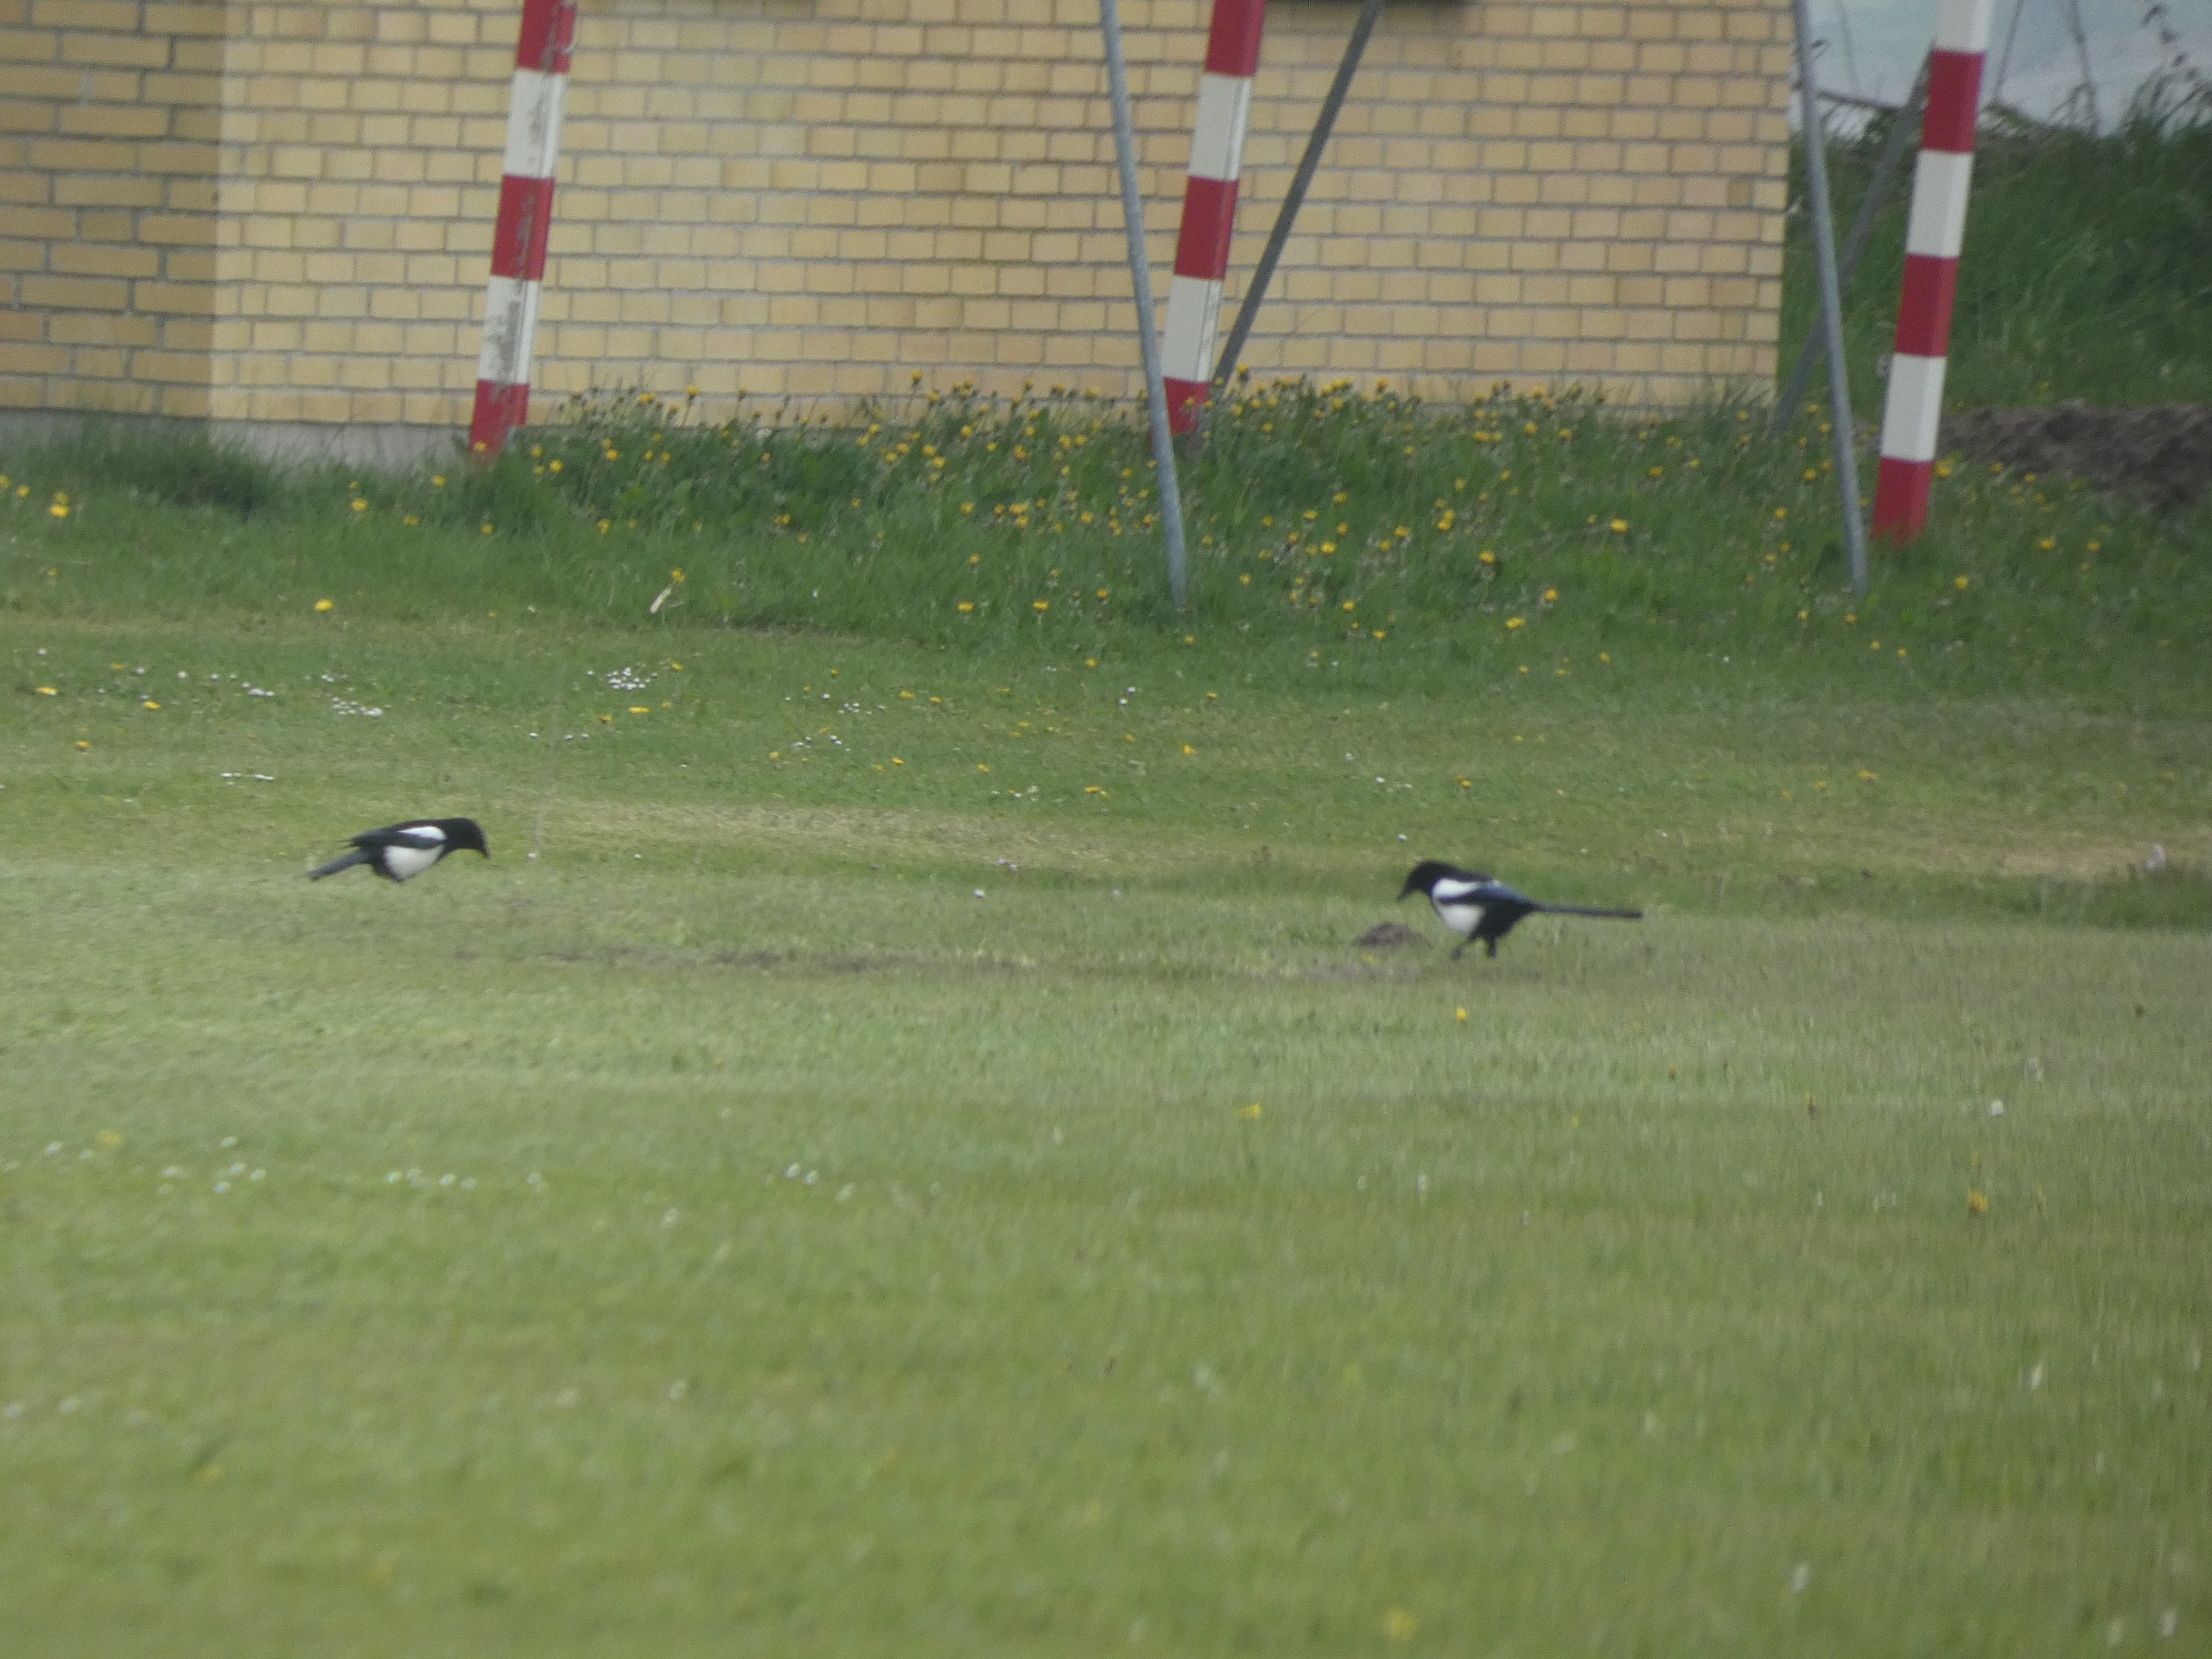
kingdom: Animalia
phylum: Chordata
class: Aves
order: Passeriformes
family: Corvidae
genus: Pica
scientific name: Pica pica
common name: Husskade
